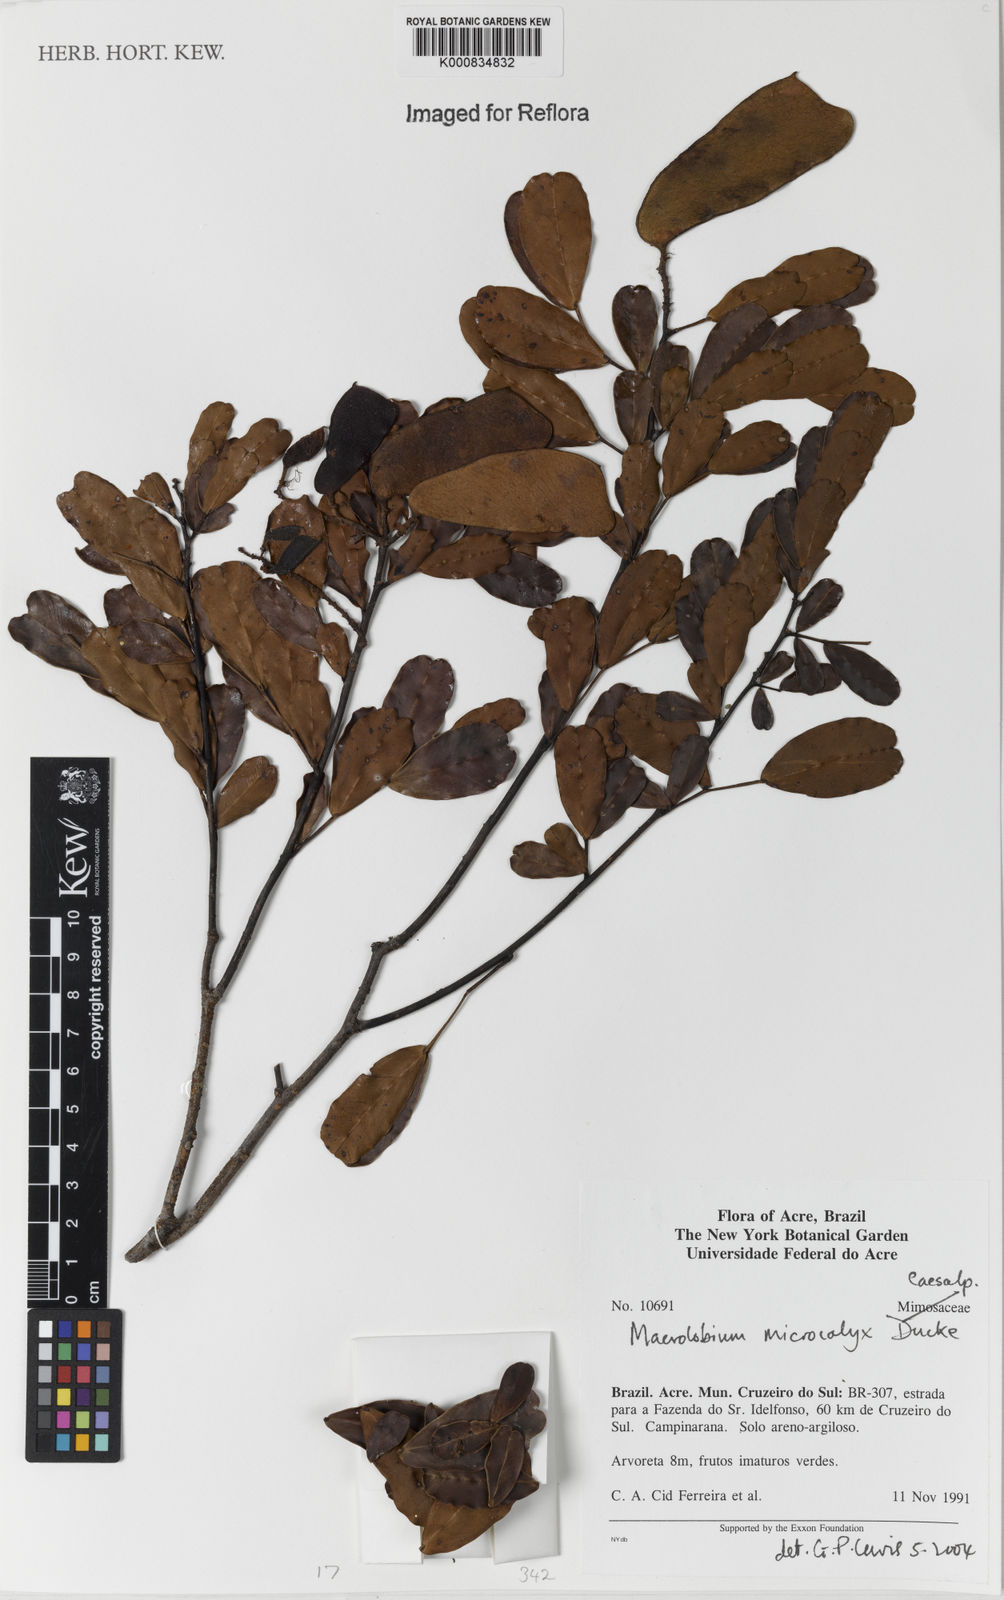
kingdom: Plantae
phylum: Tracheophyta
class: Magnoliopsida
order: Fabales
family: Fabaceae
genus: Macrolobium
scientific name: Macrolobium microcalyx
